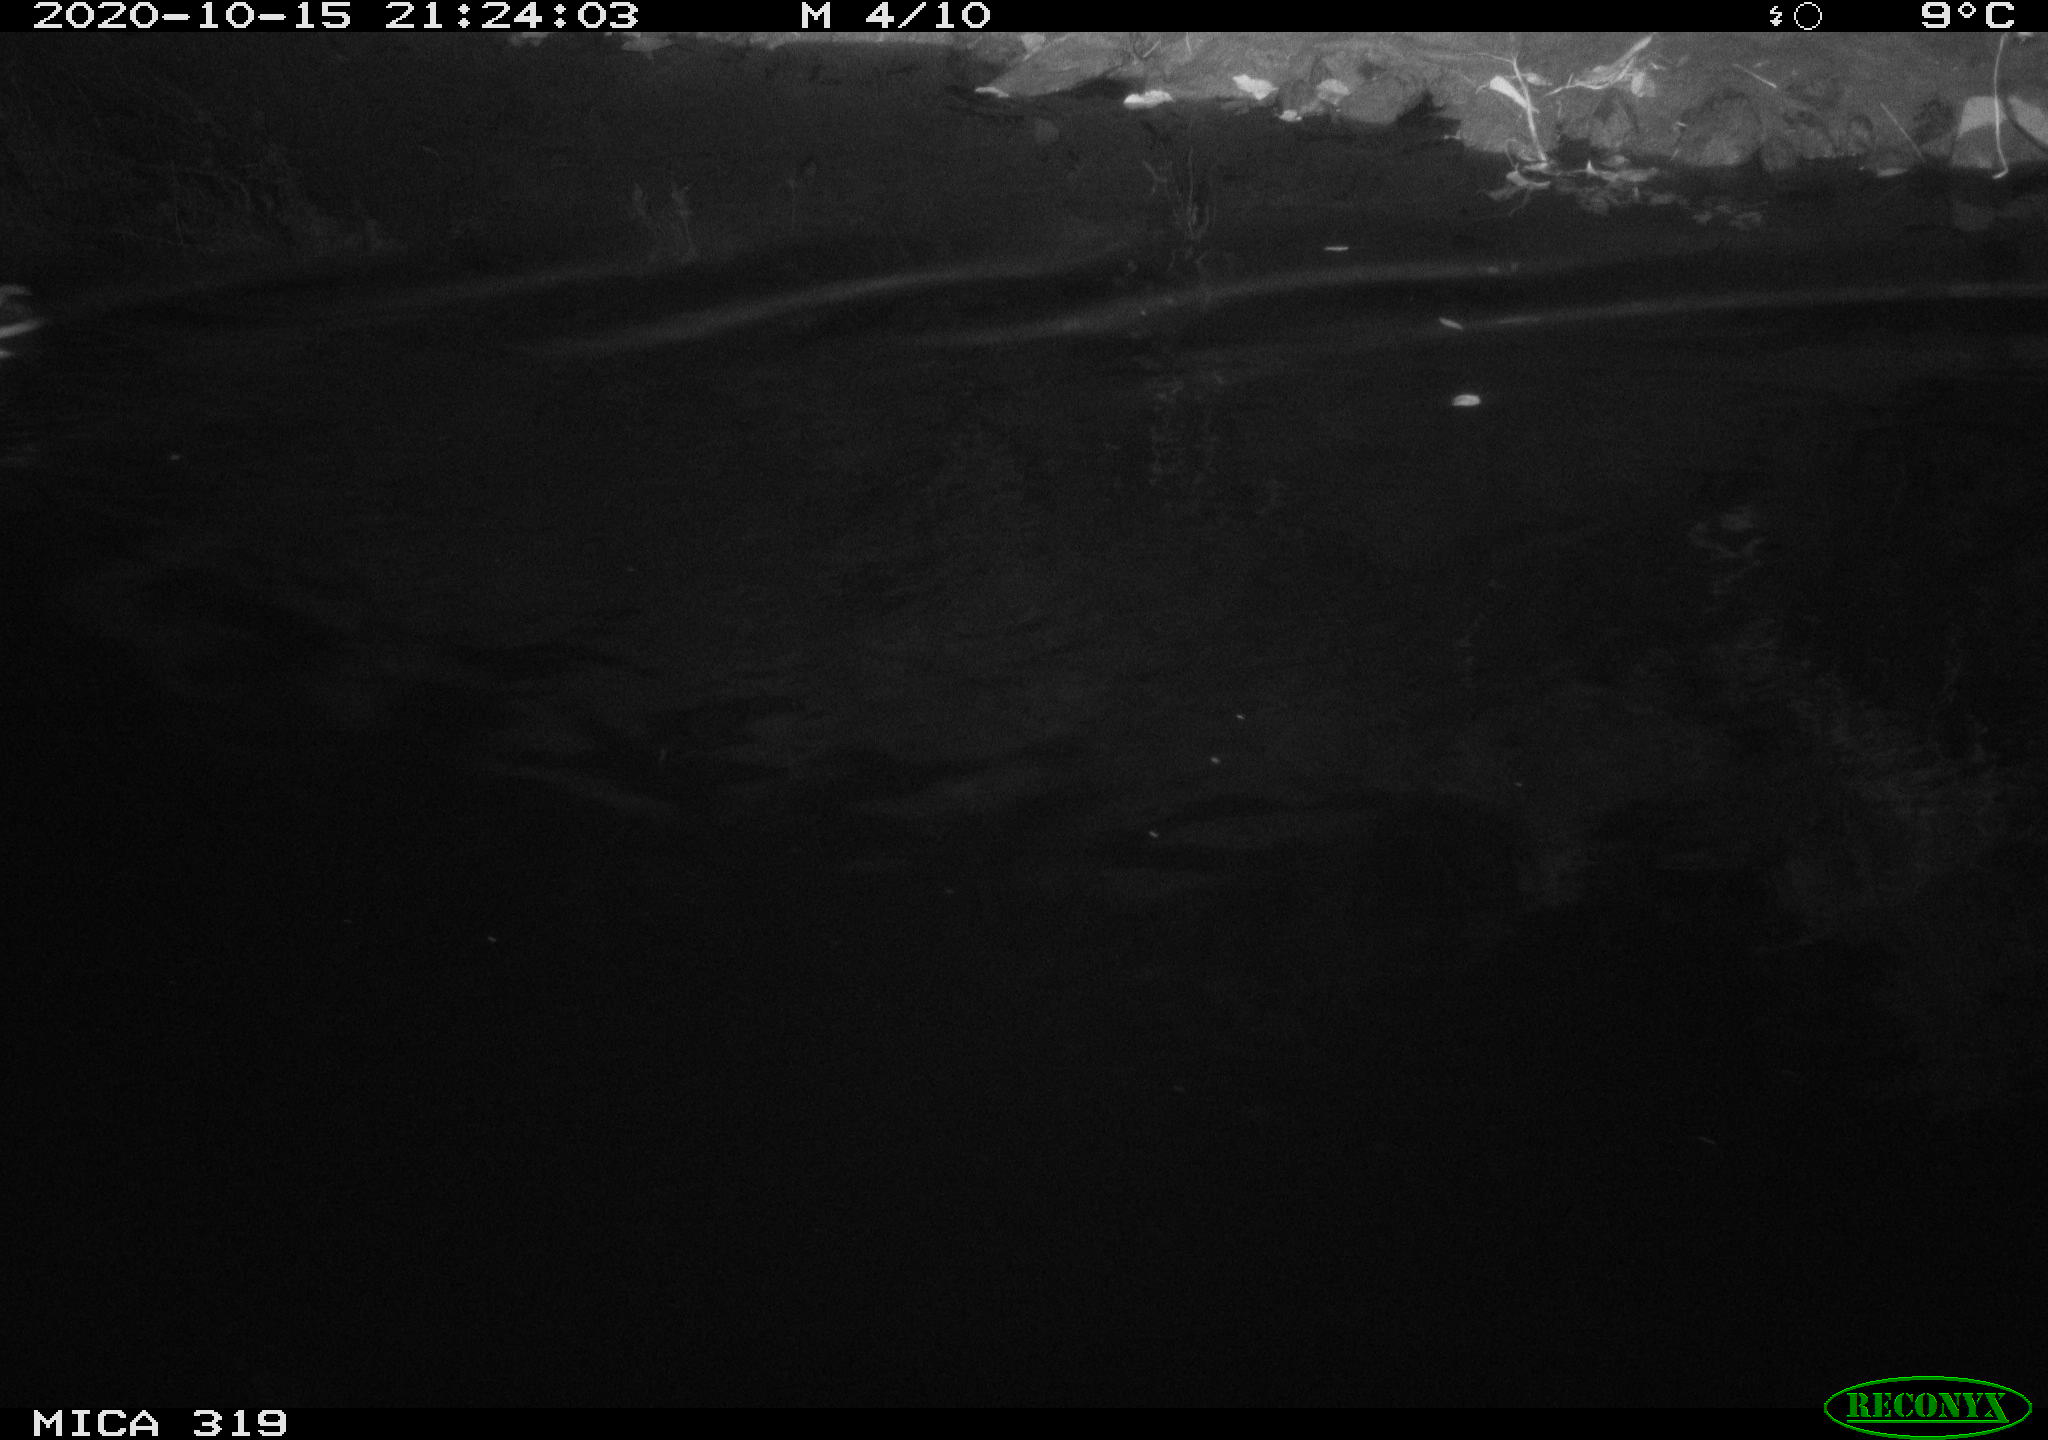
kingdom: Animalia
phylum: Chordata
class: Aves
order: Anseriformes
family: Anatidae
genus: Anas
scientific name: Anas platyrhynchos
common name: Mallard
